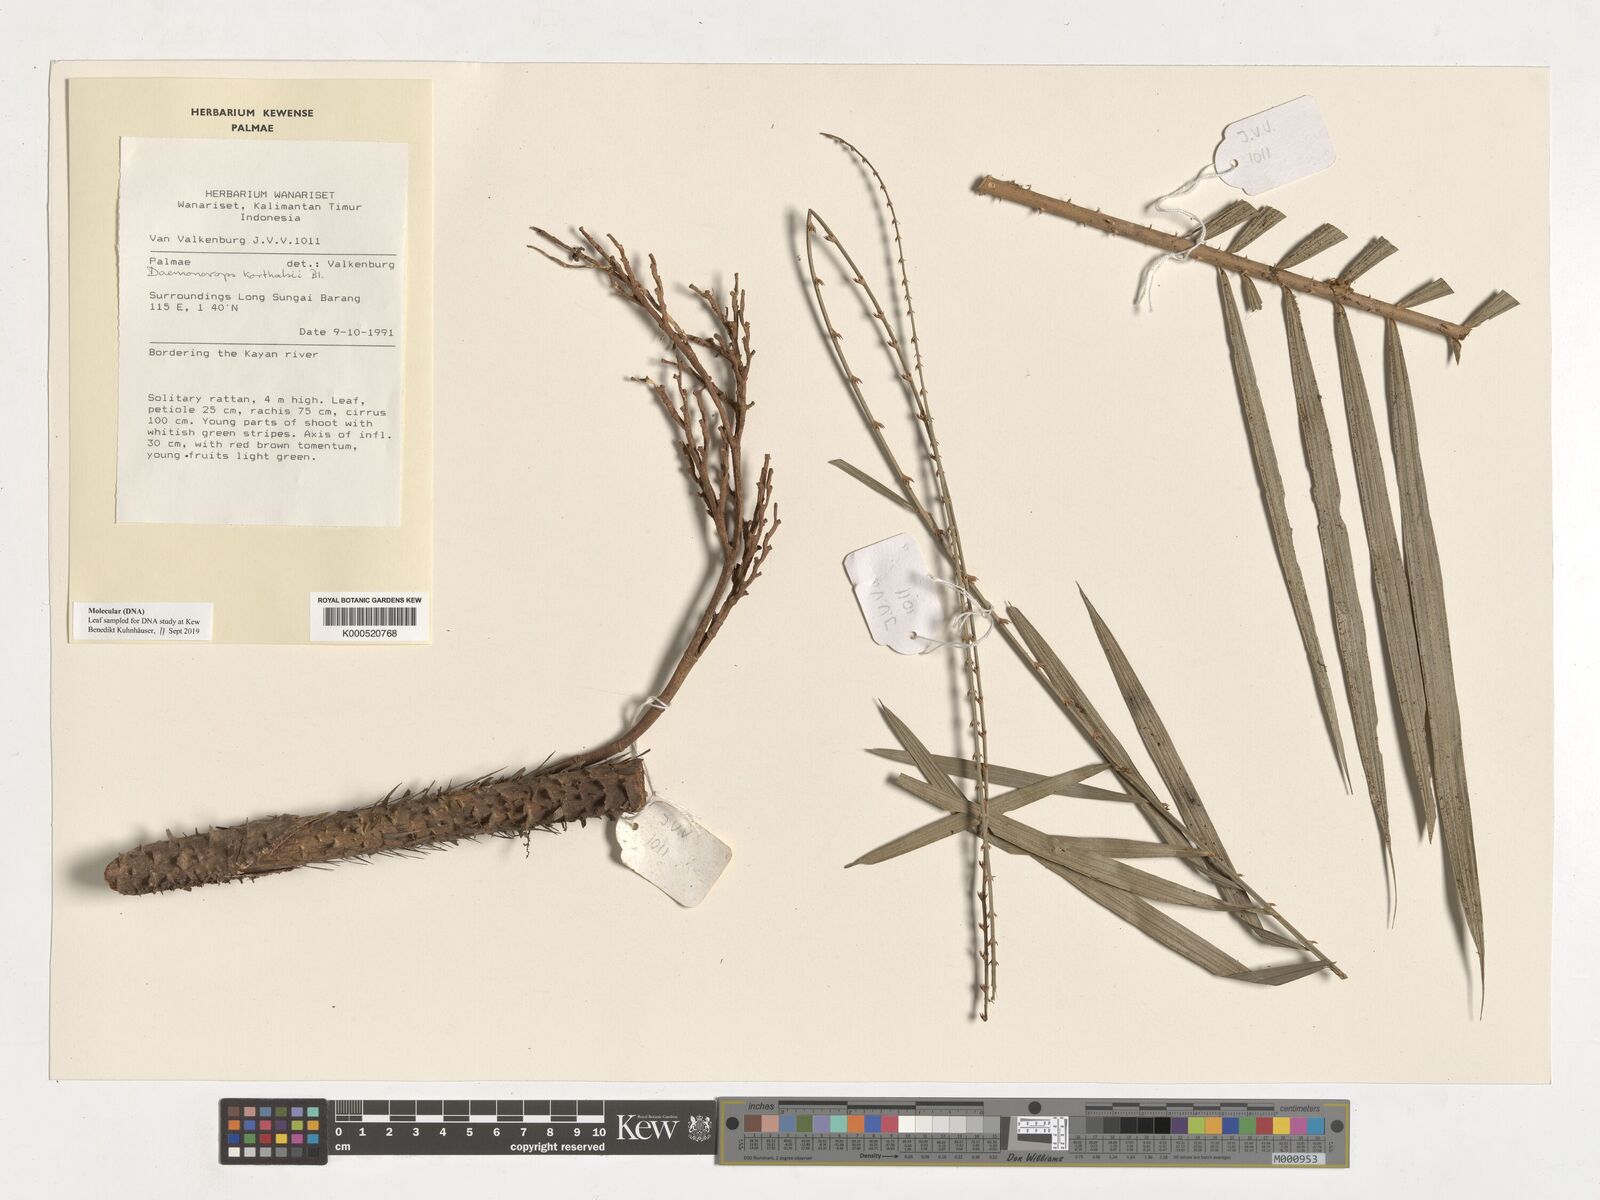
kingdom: Plantae
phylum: Tracheophyta
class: Liliopsida
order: Arecales
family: Arecaceae
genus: Calamus
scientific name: Calamus hirsutus
